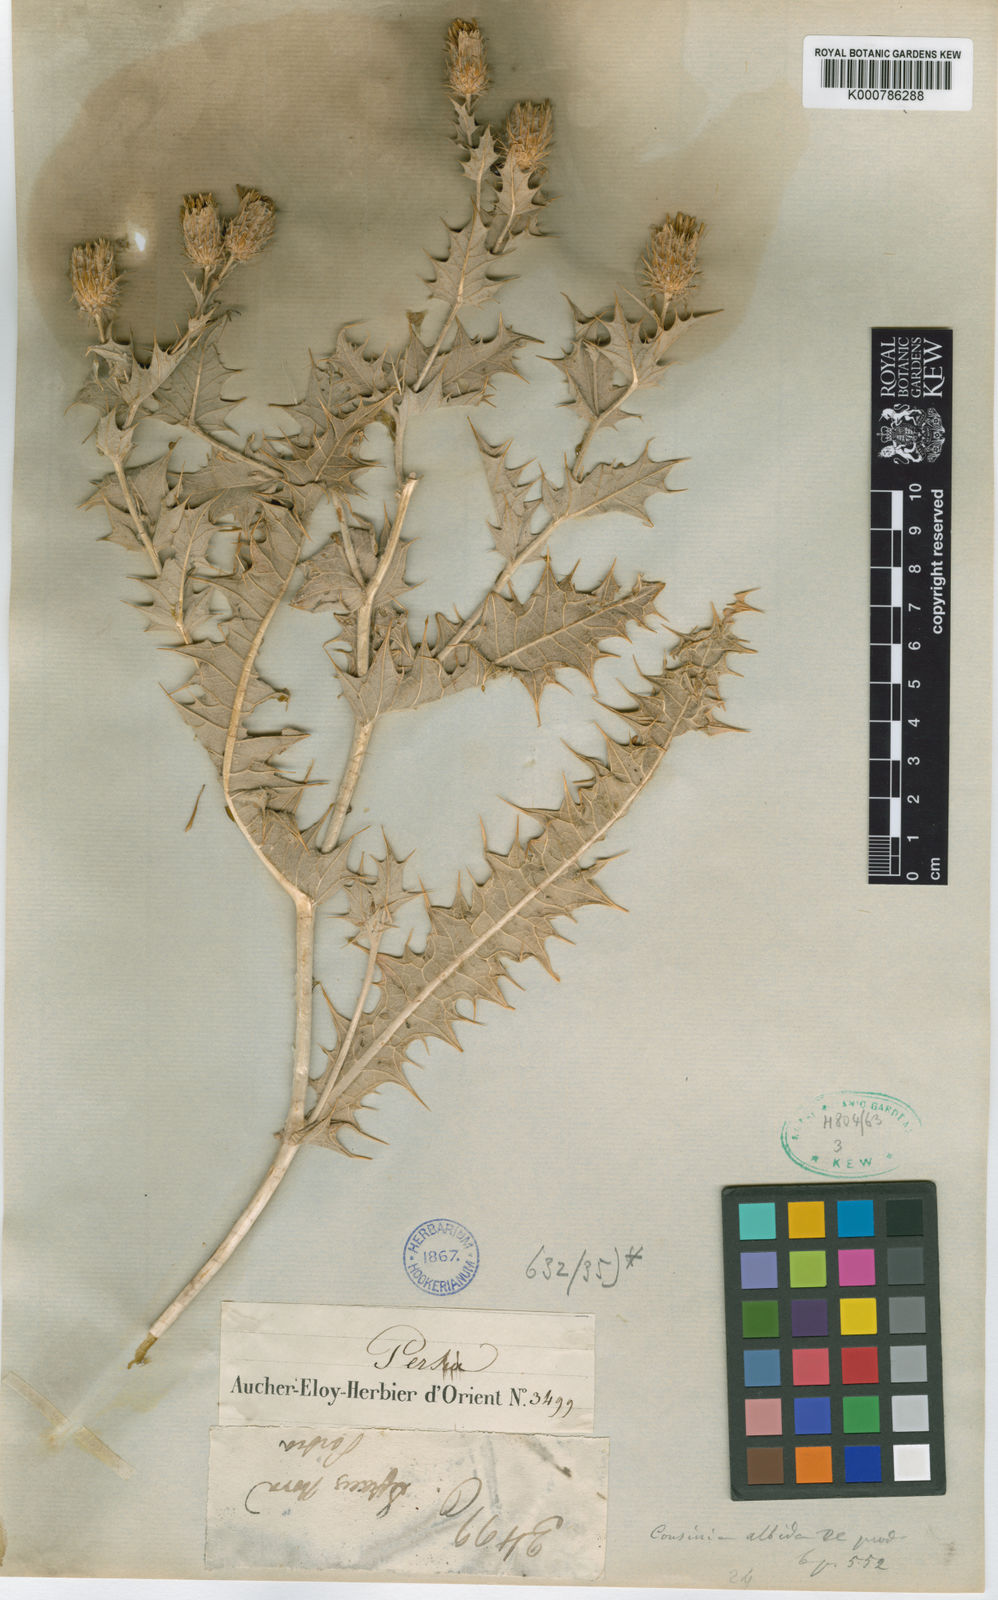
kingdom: Plantae
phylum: Tracheophyta
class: Magnoliopsida
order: Asterales
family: Asteraceae
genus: Cousinia
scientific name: Cousinia albida
